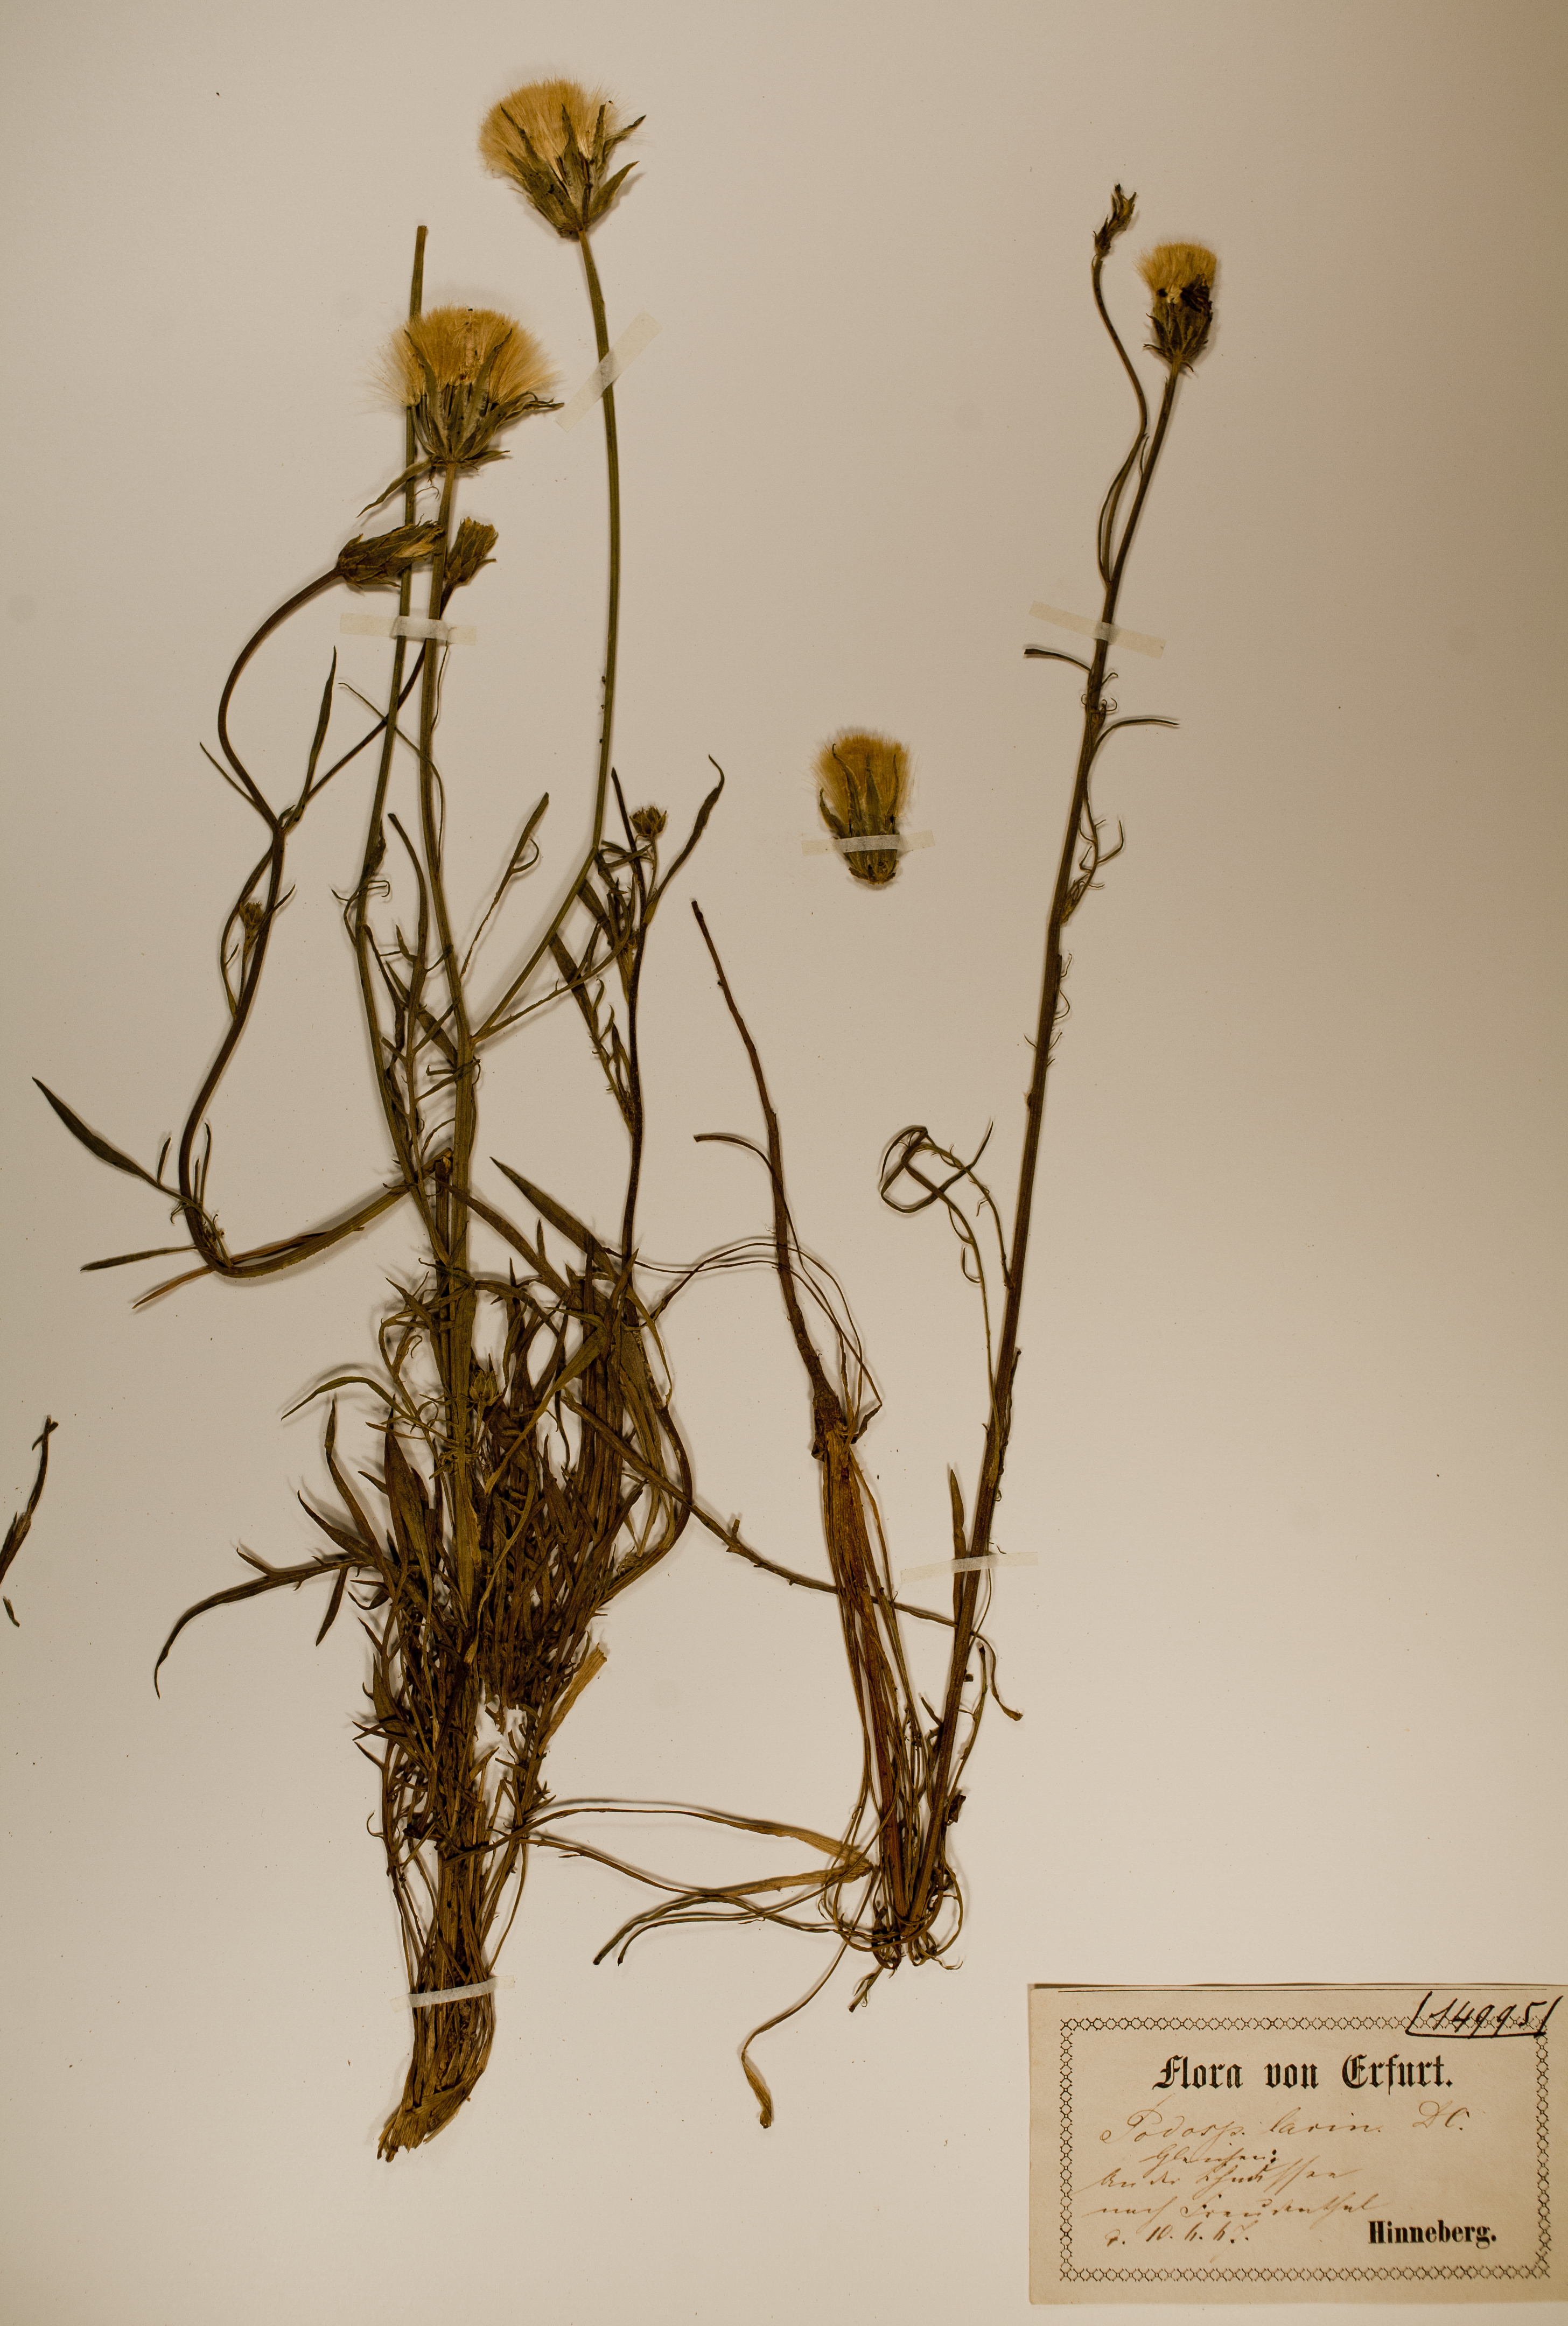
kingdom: Plantae
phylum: Tracheophyta
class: Magnoliopsida
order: Asterales
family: Asteraceae
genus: Scorzonera
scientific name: Scorzonera laciniata
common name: Cutleaf vipergrass
